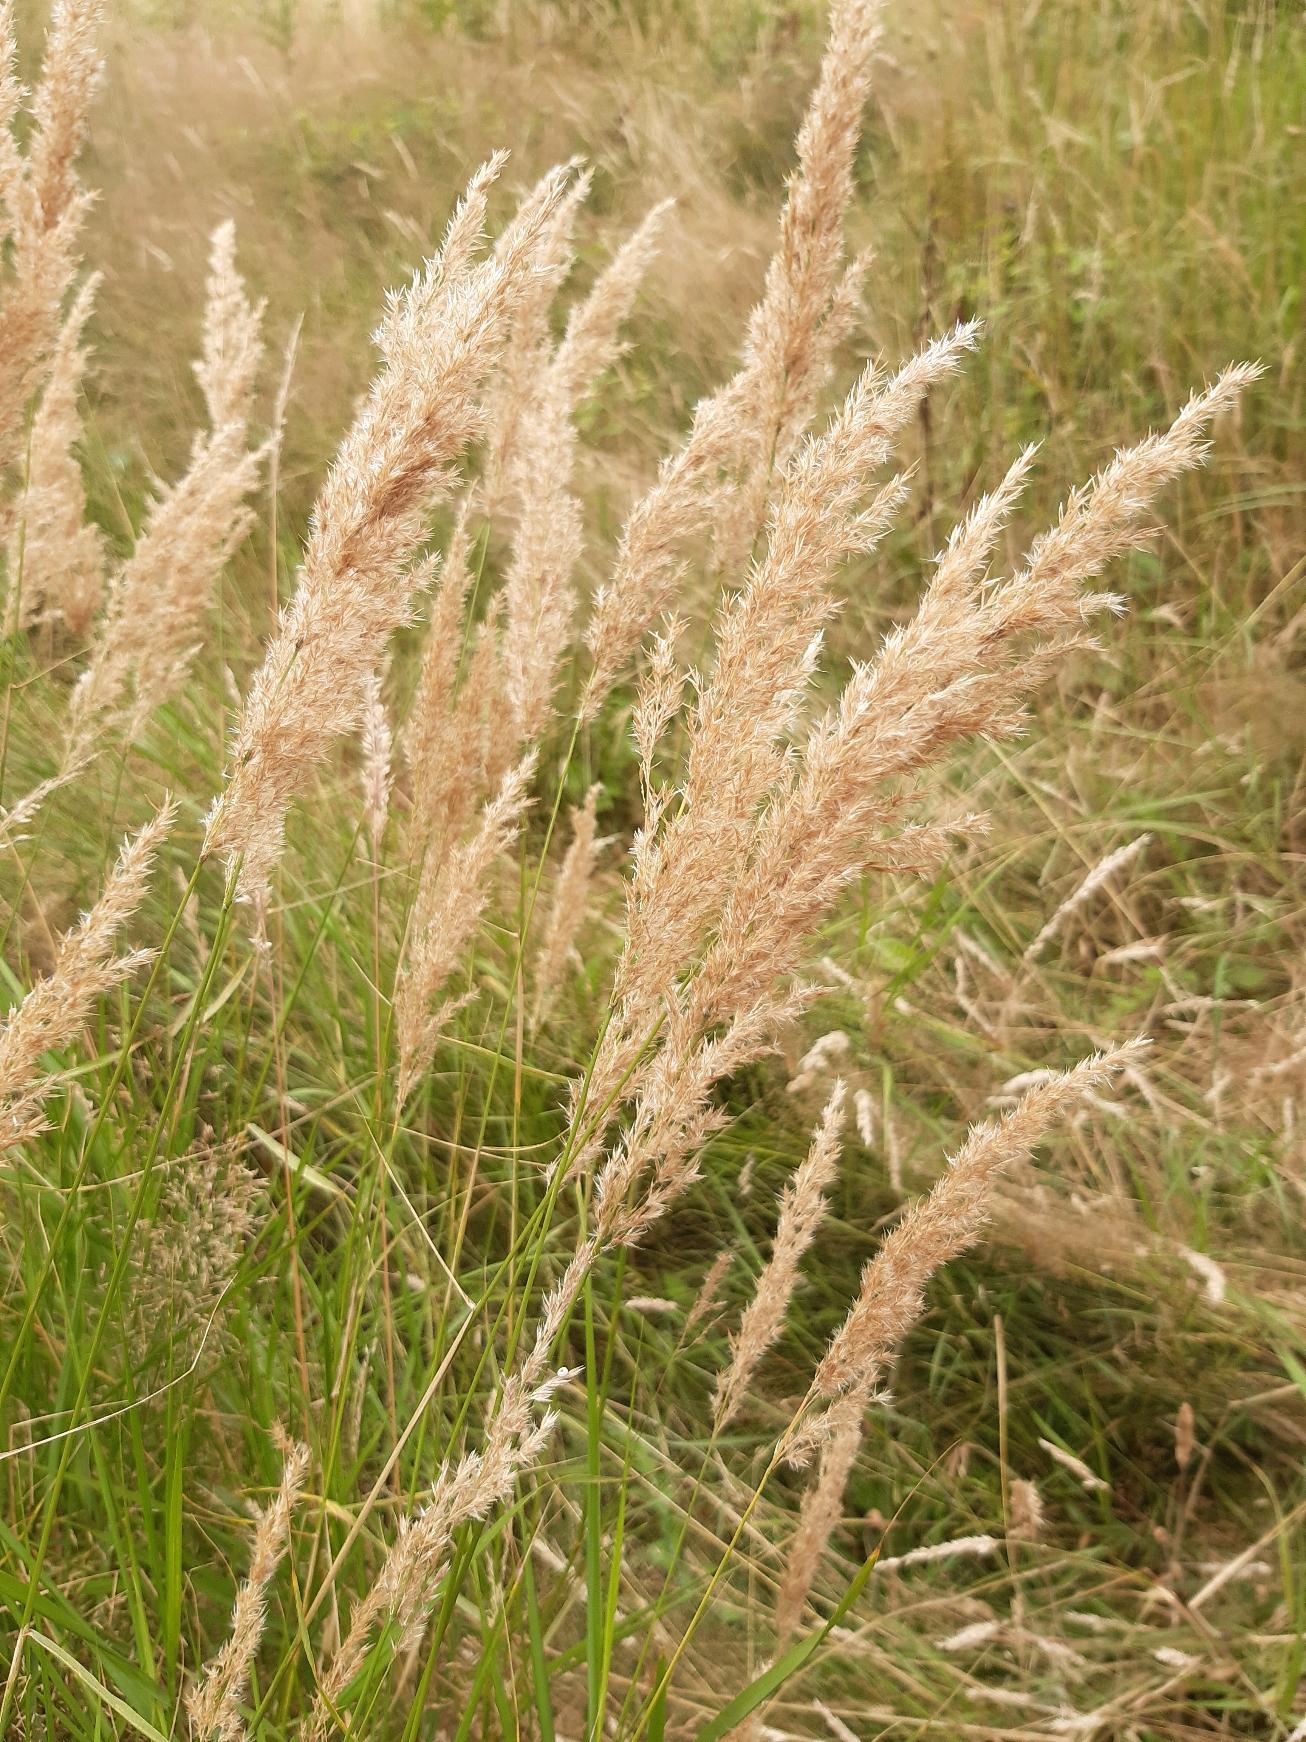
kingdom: Plantae
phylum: Tracheophyta
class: Liliopsida
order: Poales
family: Poaceae
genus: Calamagrostis
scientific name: Calamagrostis epigejos
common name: Bjerg-rørhvene
